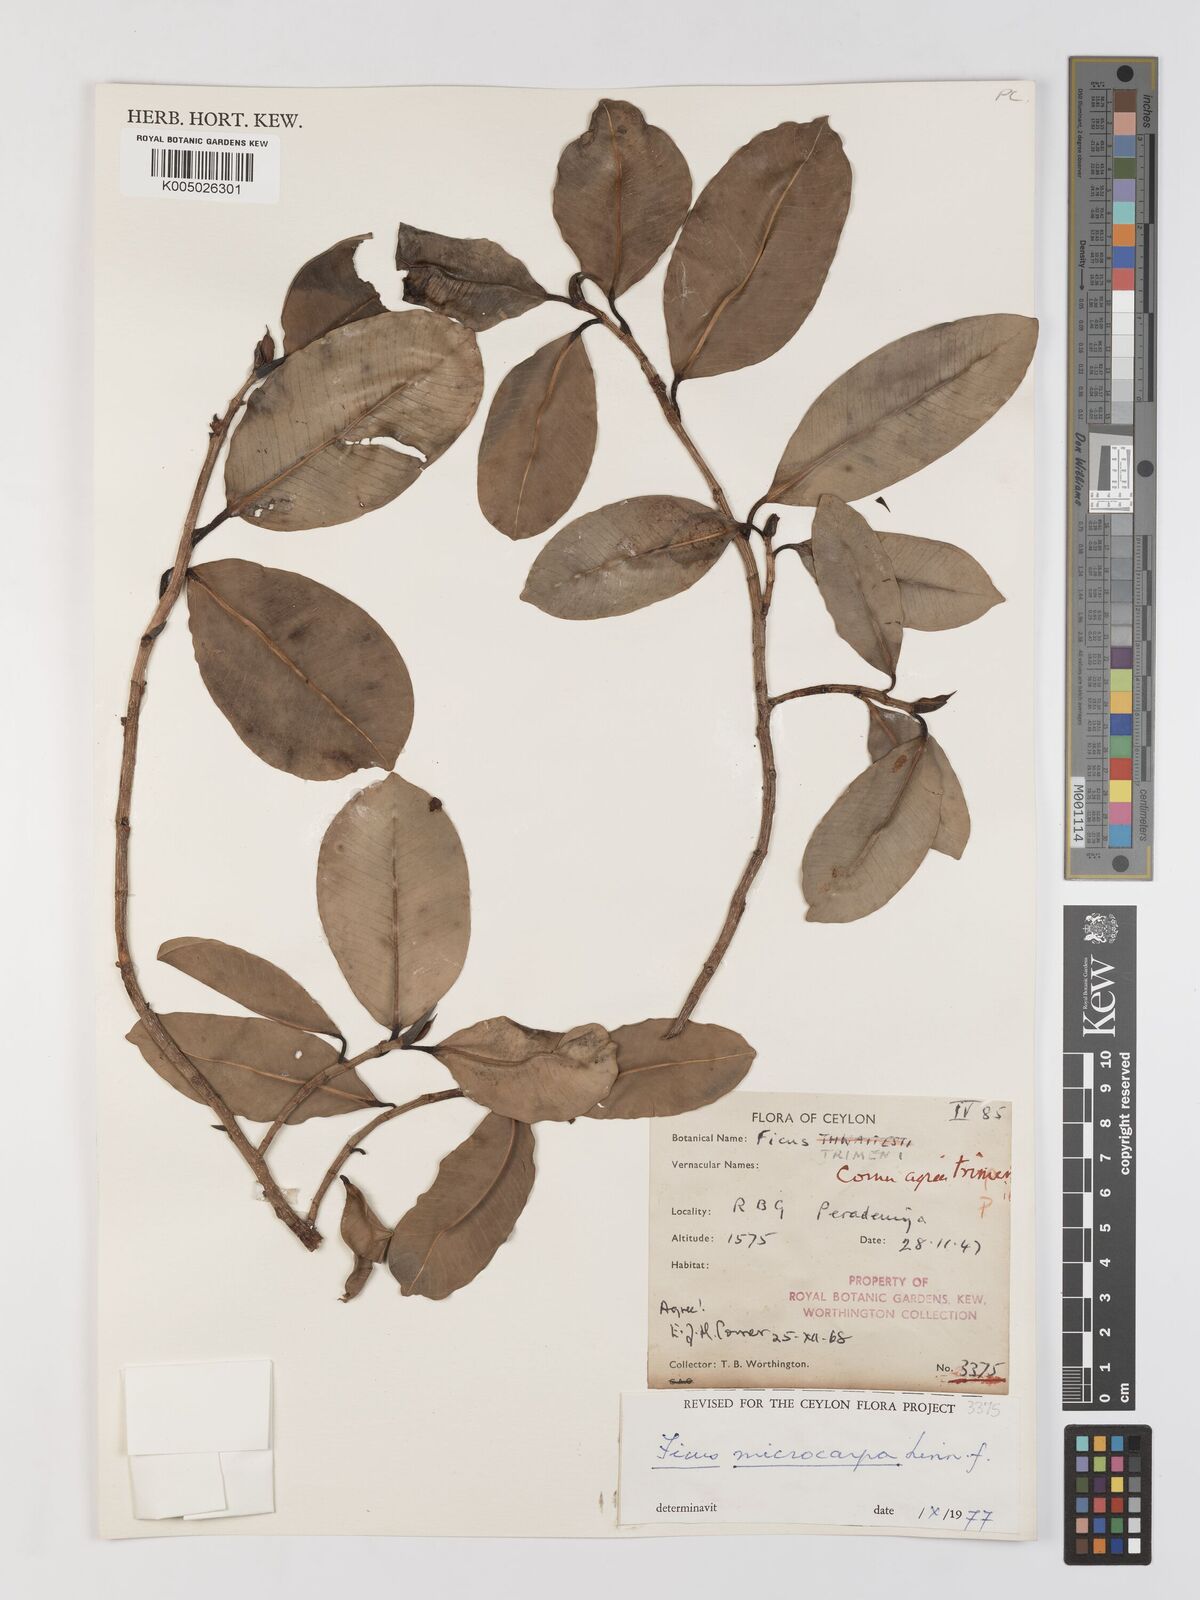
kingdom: Plantae
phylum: Tracheophyta
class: Magnoliopsida
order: Rosales
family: Moraceae
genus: Ficus
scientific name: Ficus
